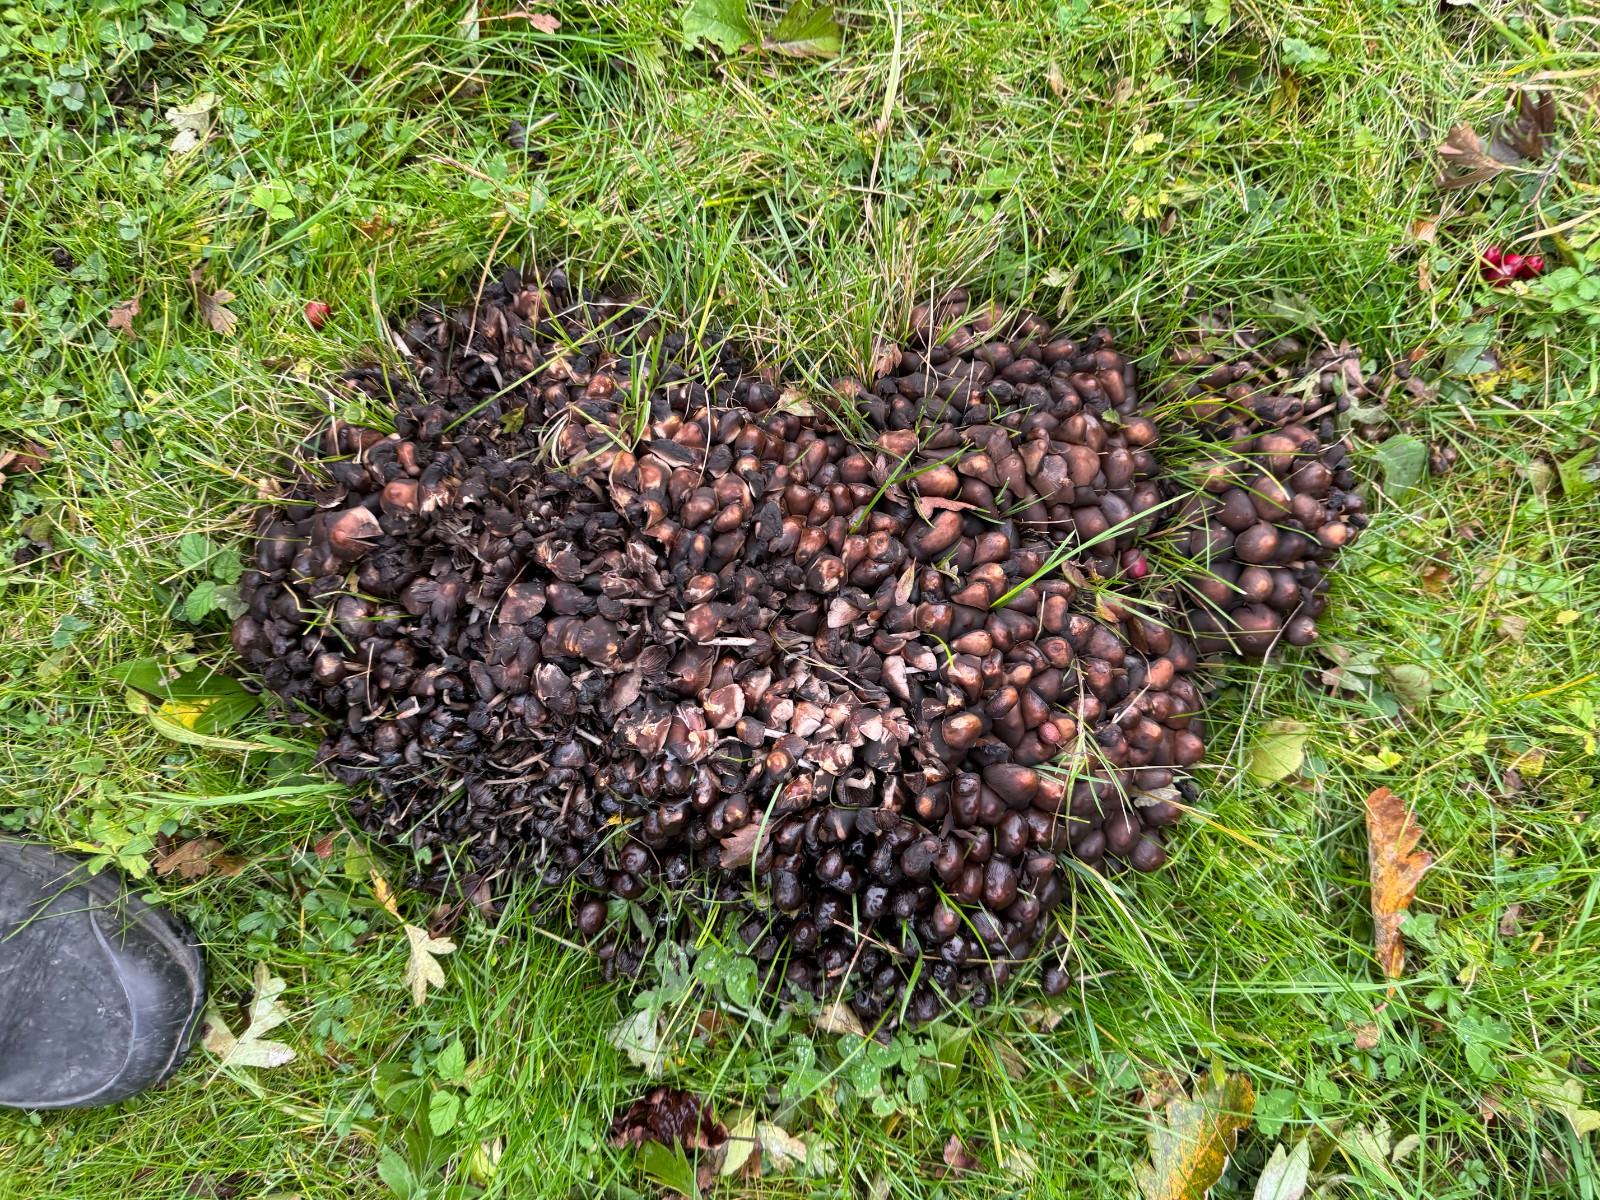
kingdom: Fungi
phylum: Basidiomycota
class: Agaricomycetes
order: Agaricales
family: Psathyrellaceae
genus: Britzelmayria
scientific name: Britzelmayria multipedata
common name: knippe-mørkhat
